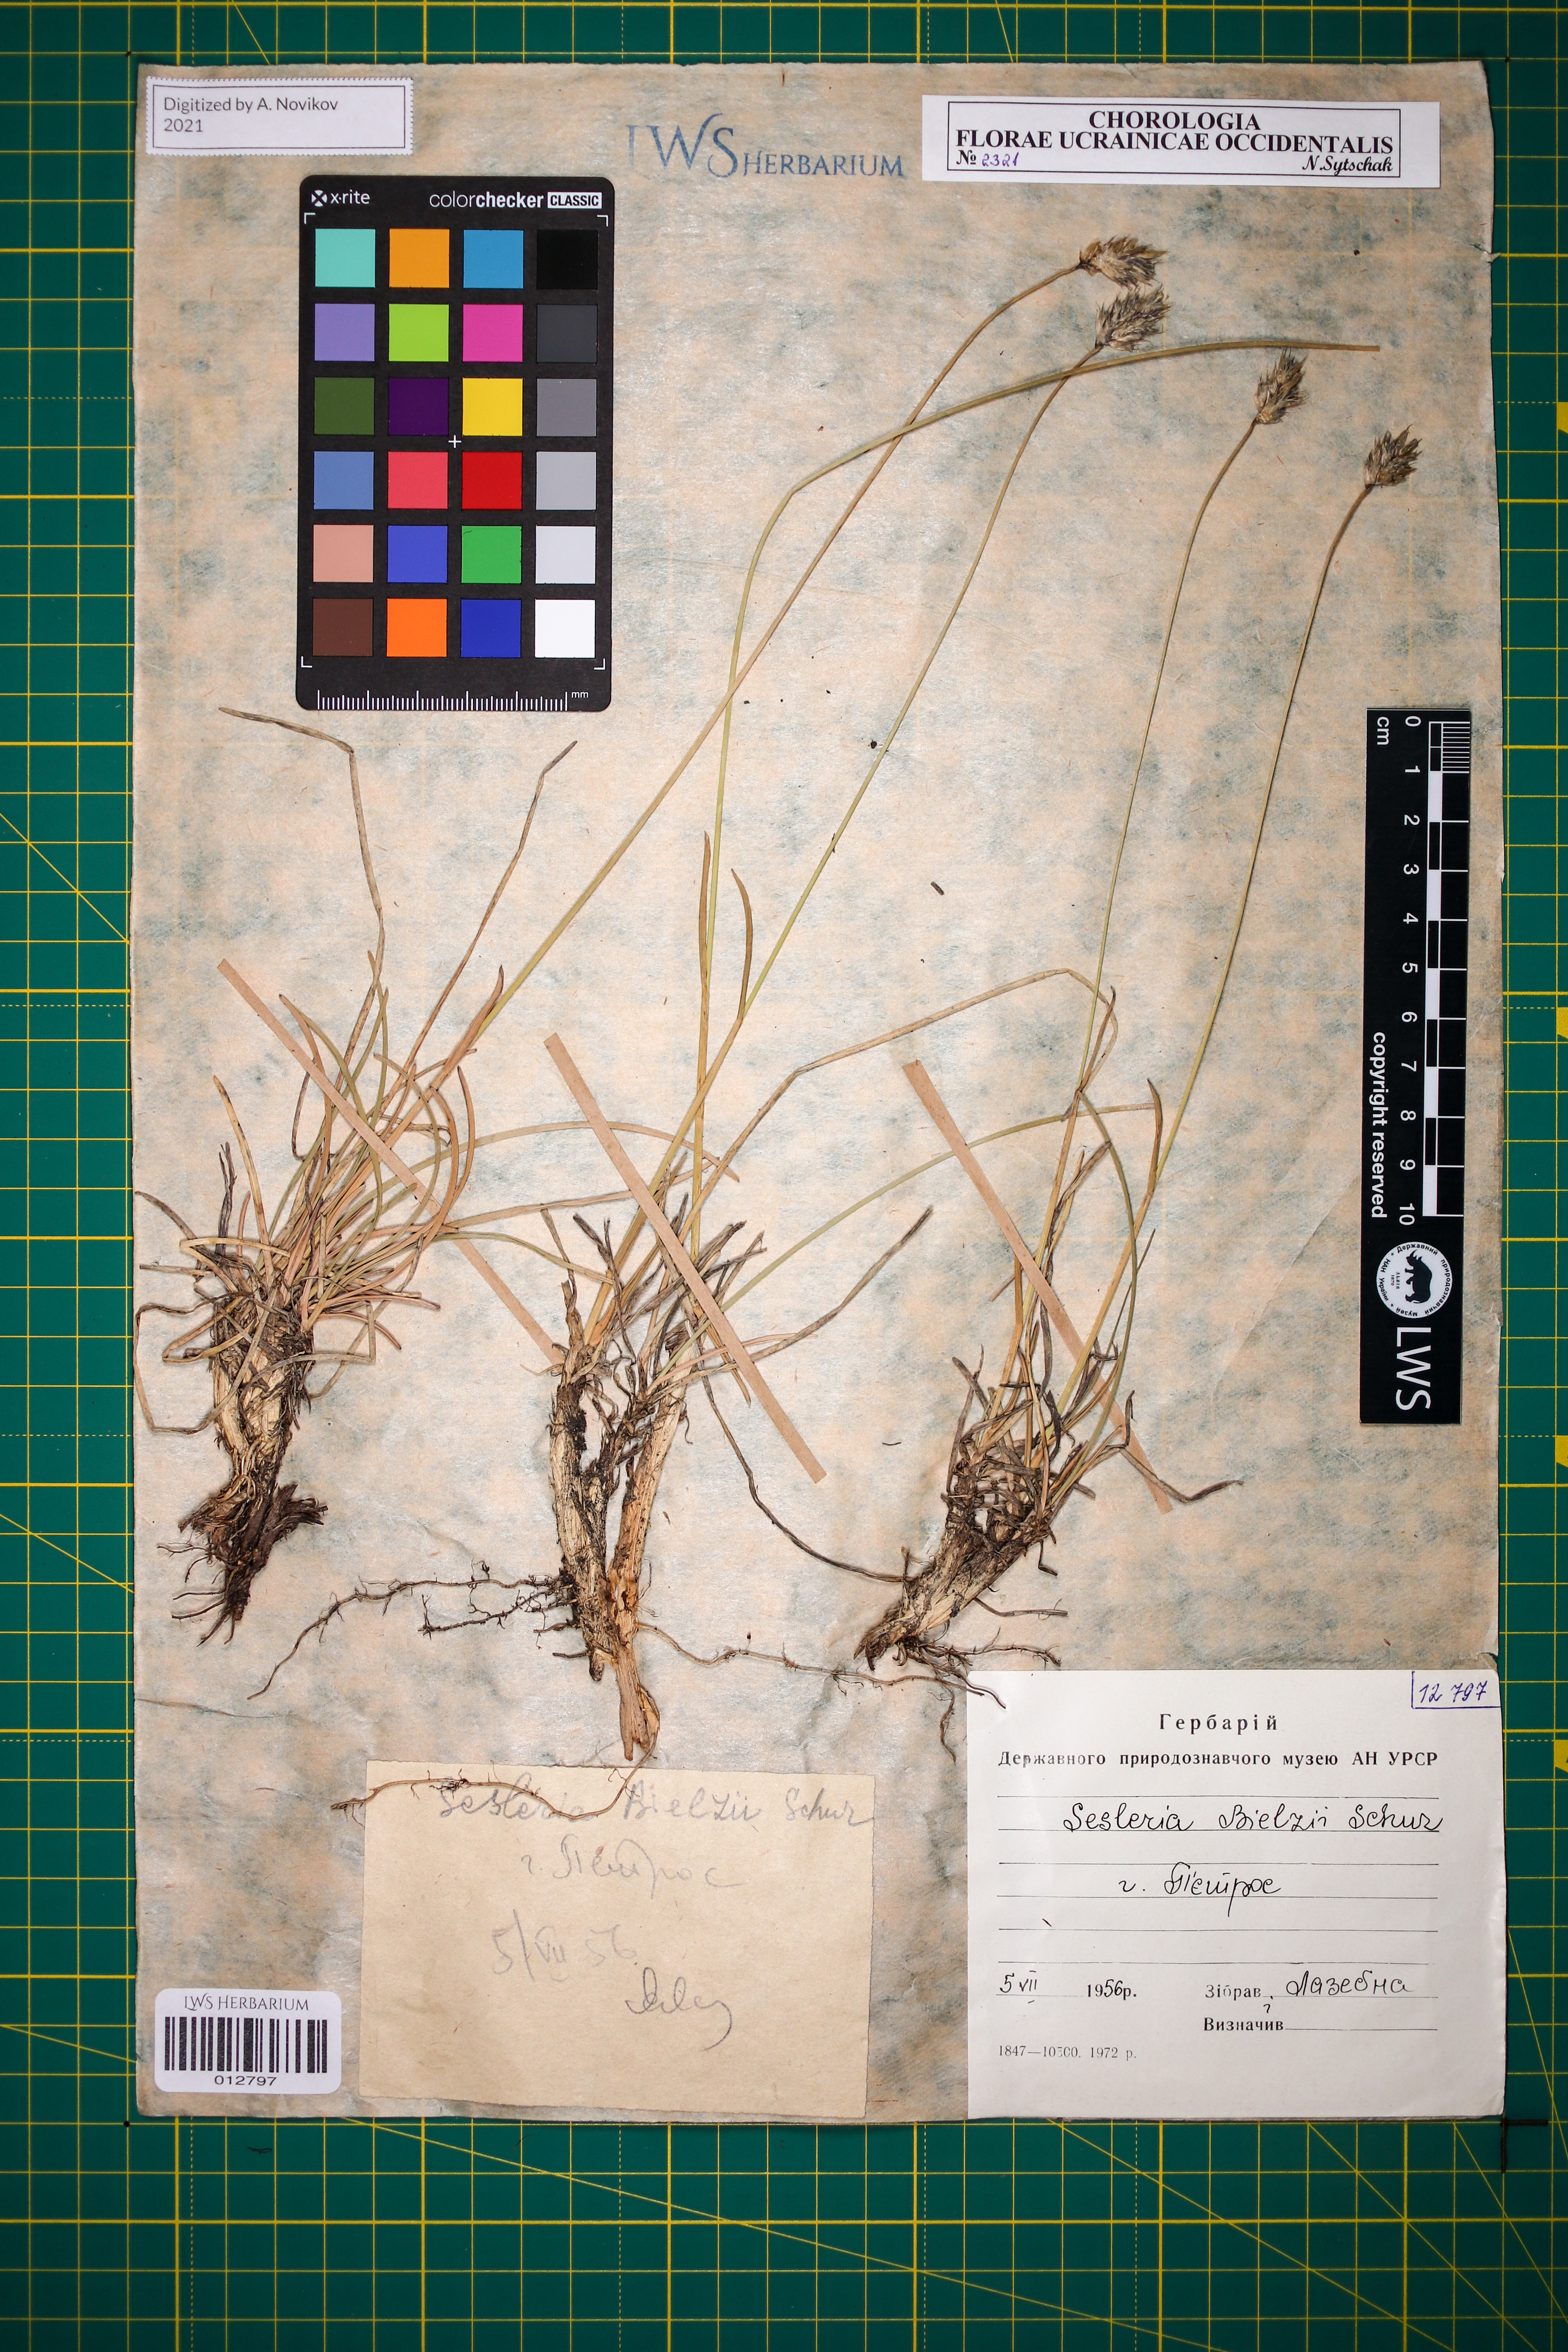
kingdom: Plantae
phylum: Tracheophyta
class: Liliopsida
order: Poales
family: Poaceae
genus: Sesleria
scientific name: Sesleria bielzii
